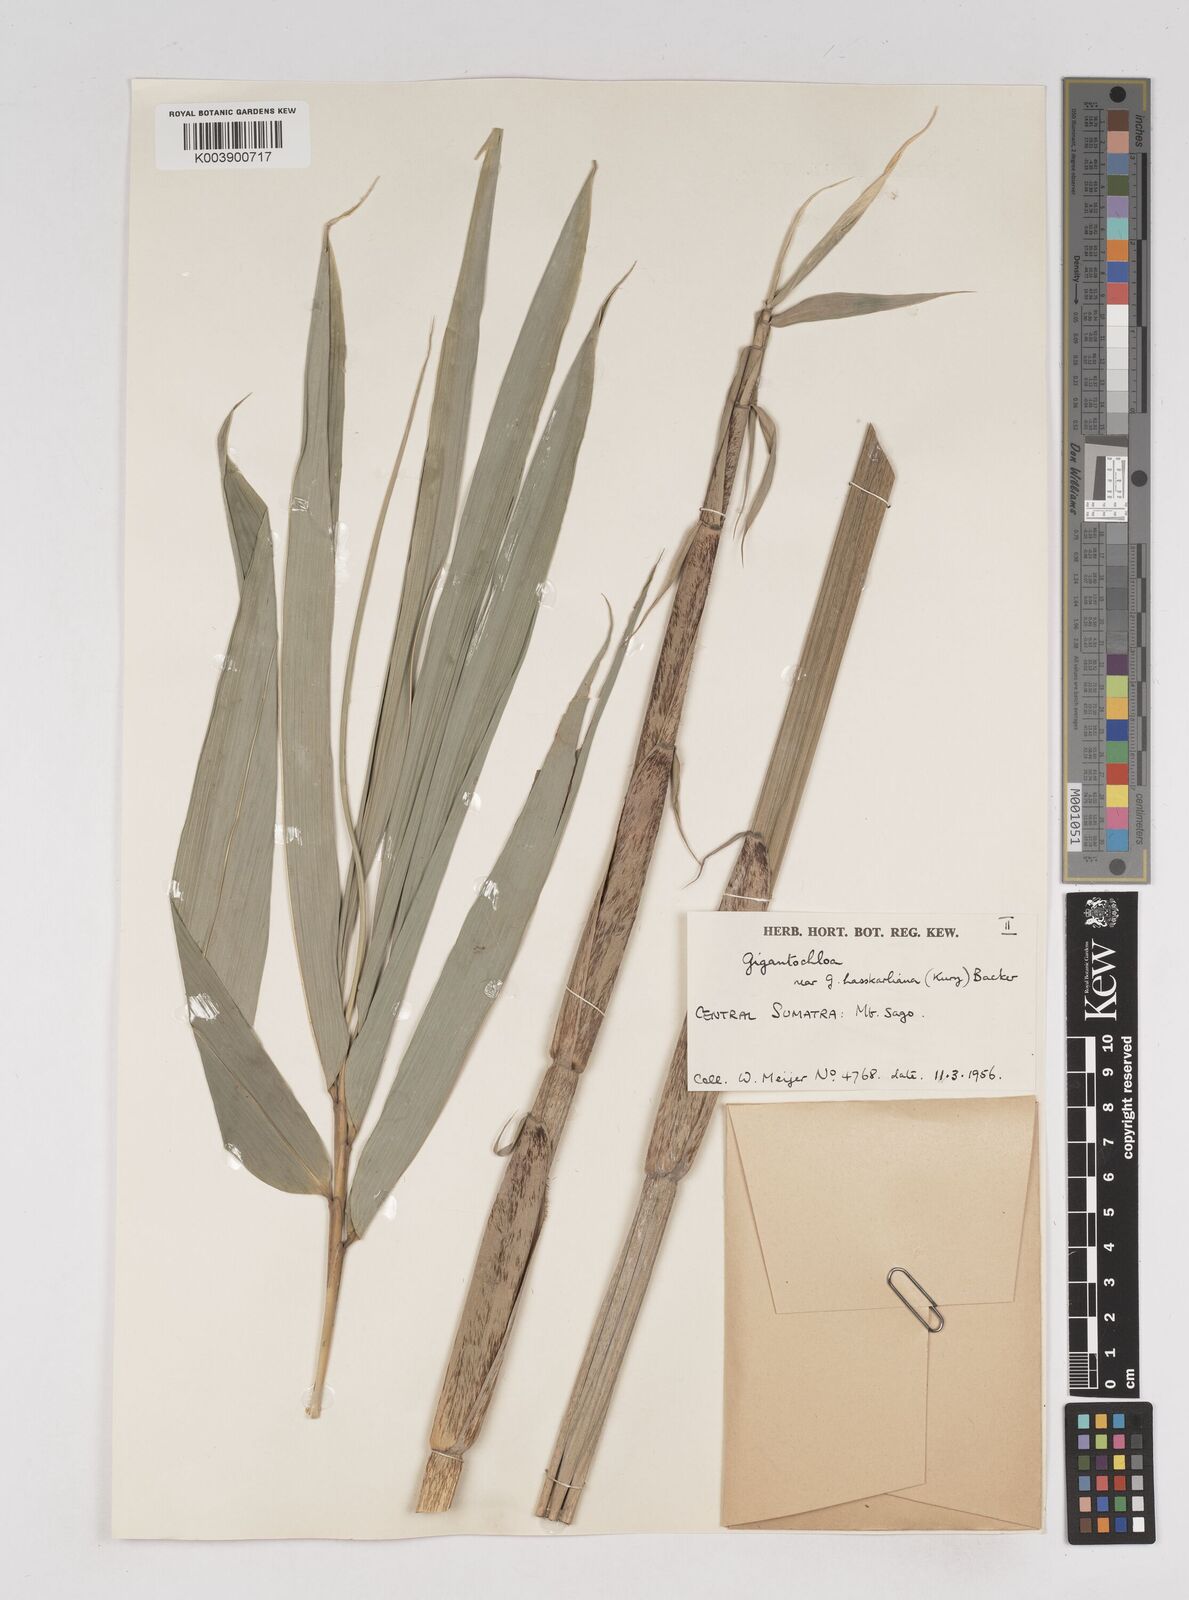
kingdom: Plantae
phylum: Tracheophyta
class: Liliopsida
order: Poales
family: Poaceae
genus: Gigantochloa
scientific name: Gigantochloa
